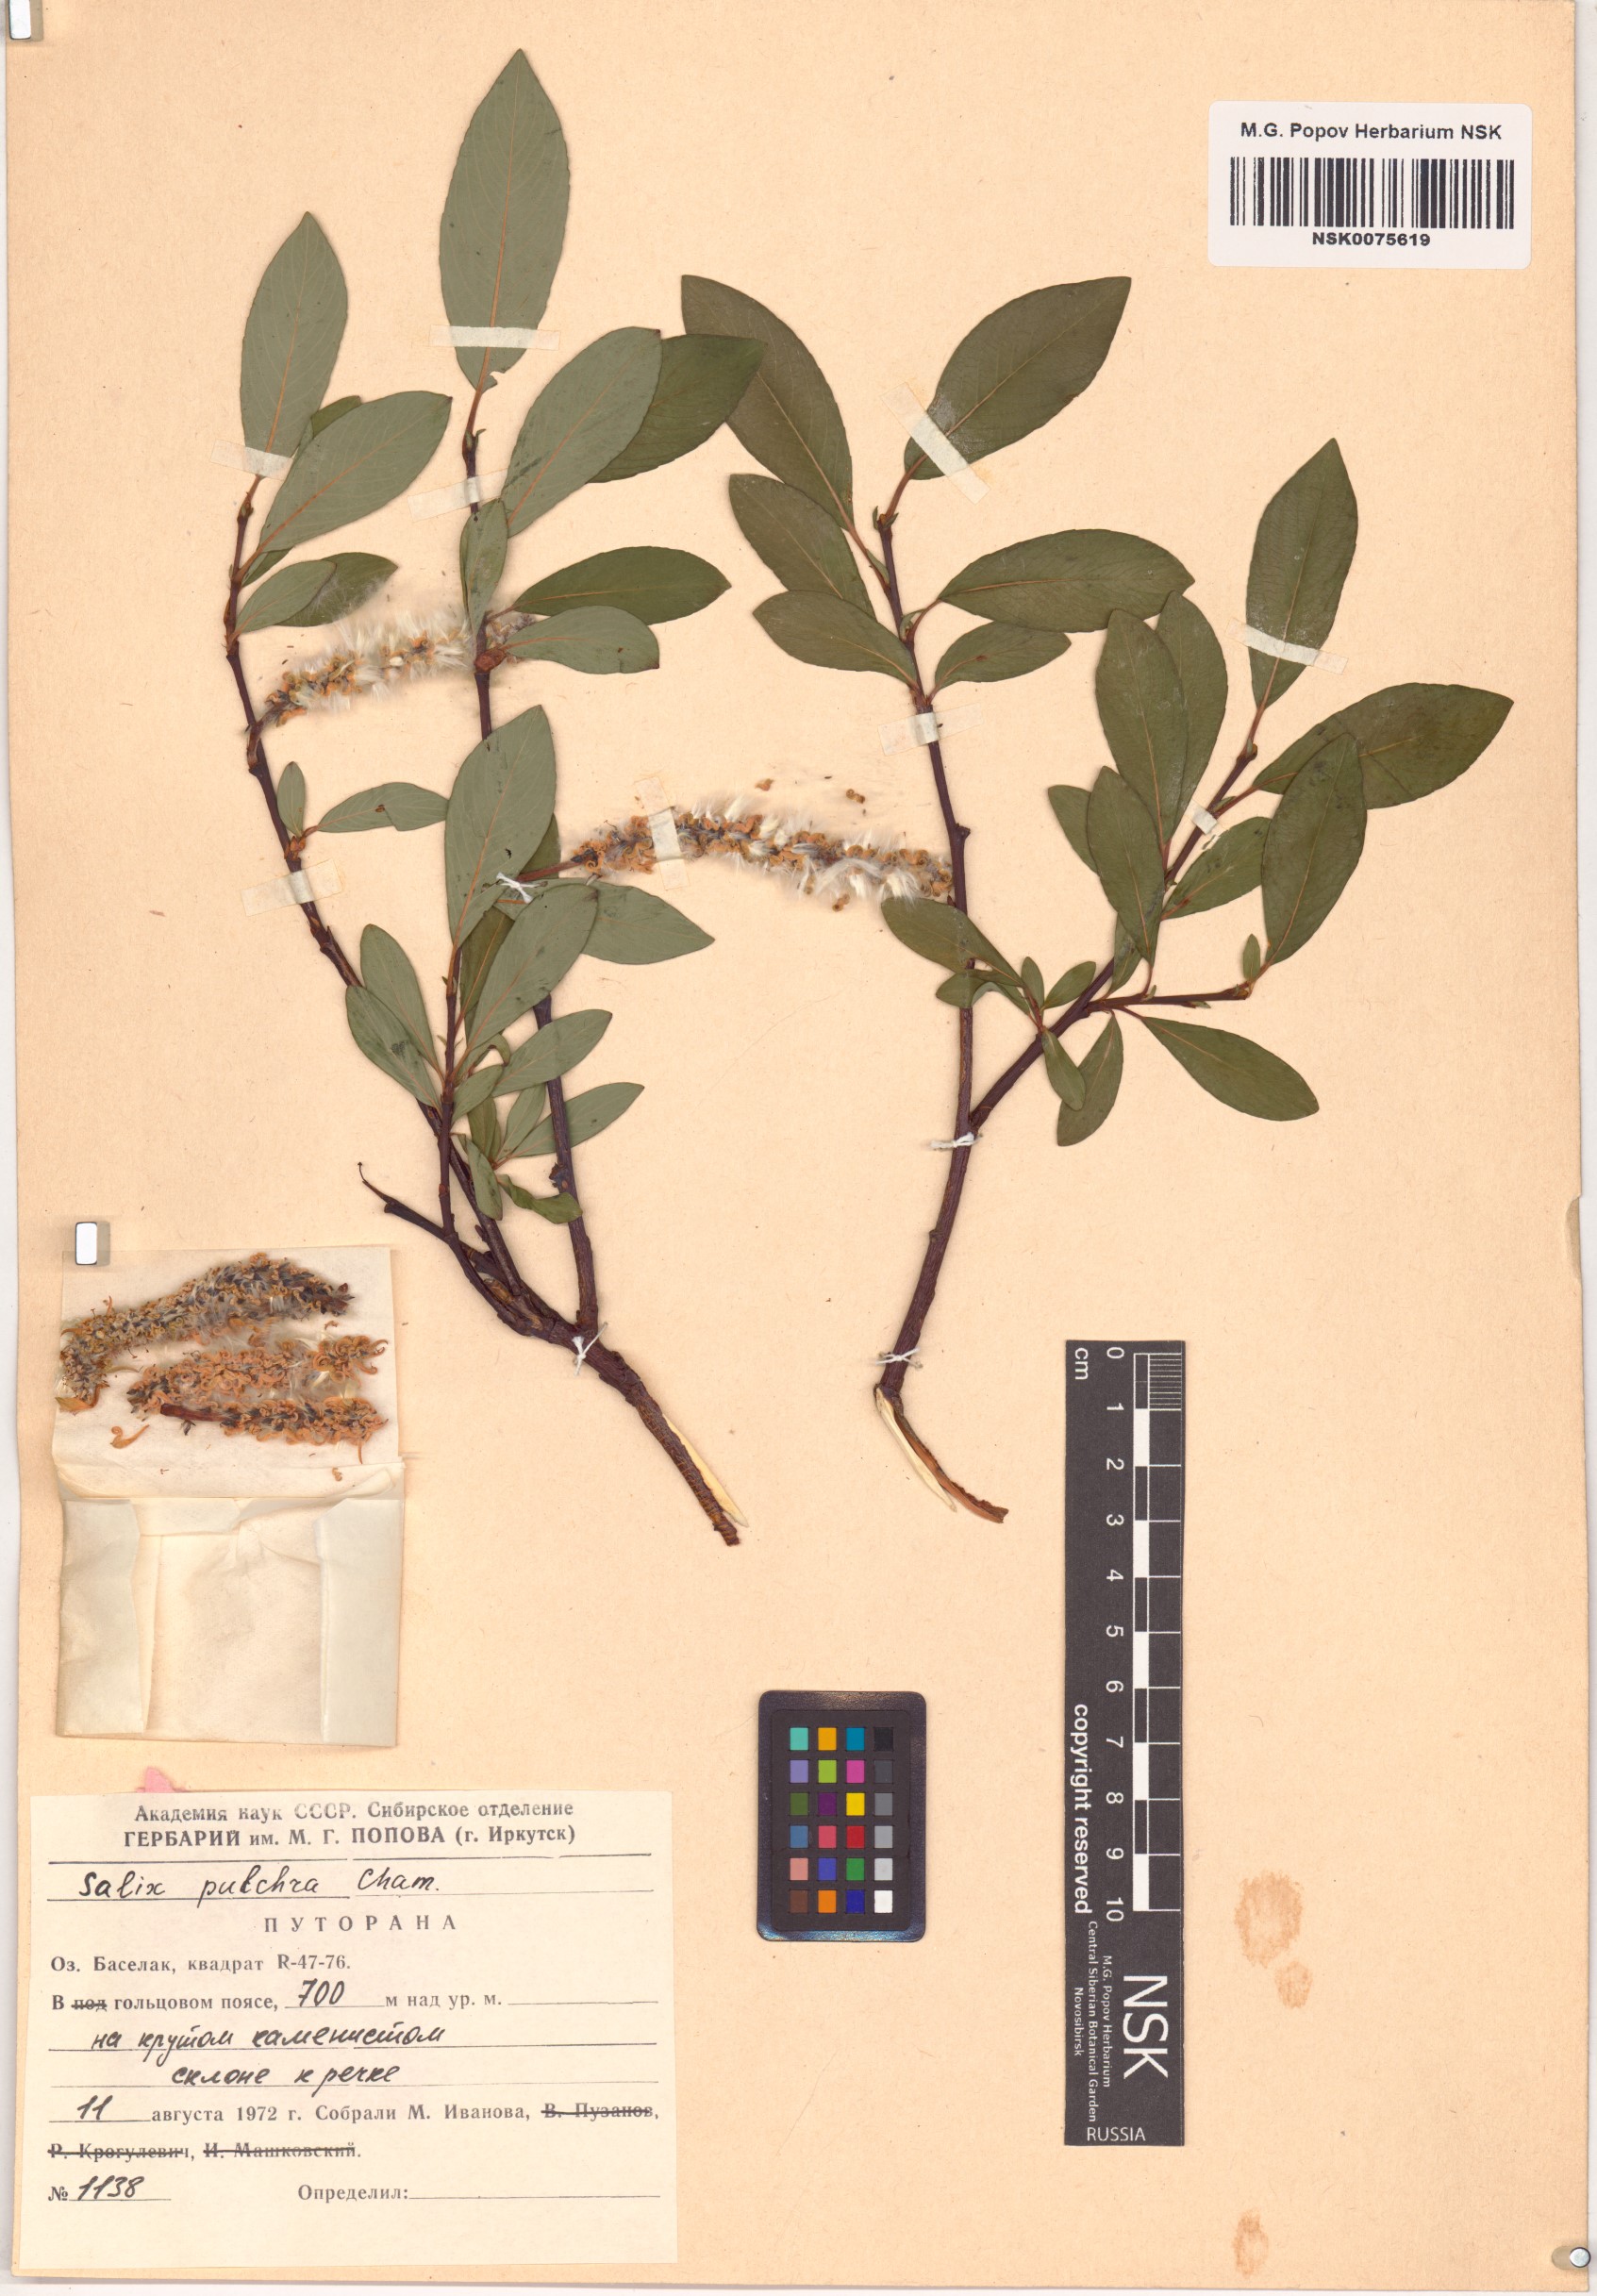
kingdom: Plantae
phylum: Tracheophyta
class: Magnoliopsida
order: Malpighiales
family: Salicaceae
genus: Salix
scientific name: Salix pulchra
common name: Diamond-leaved willow
